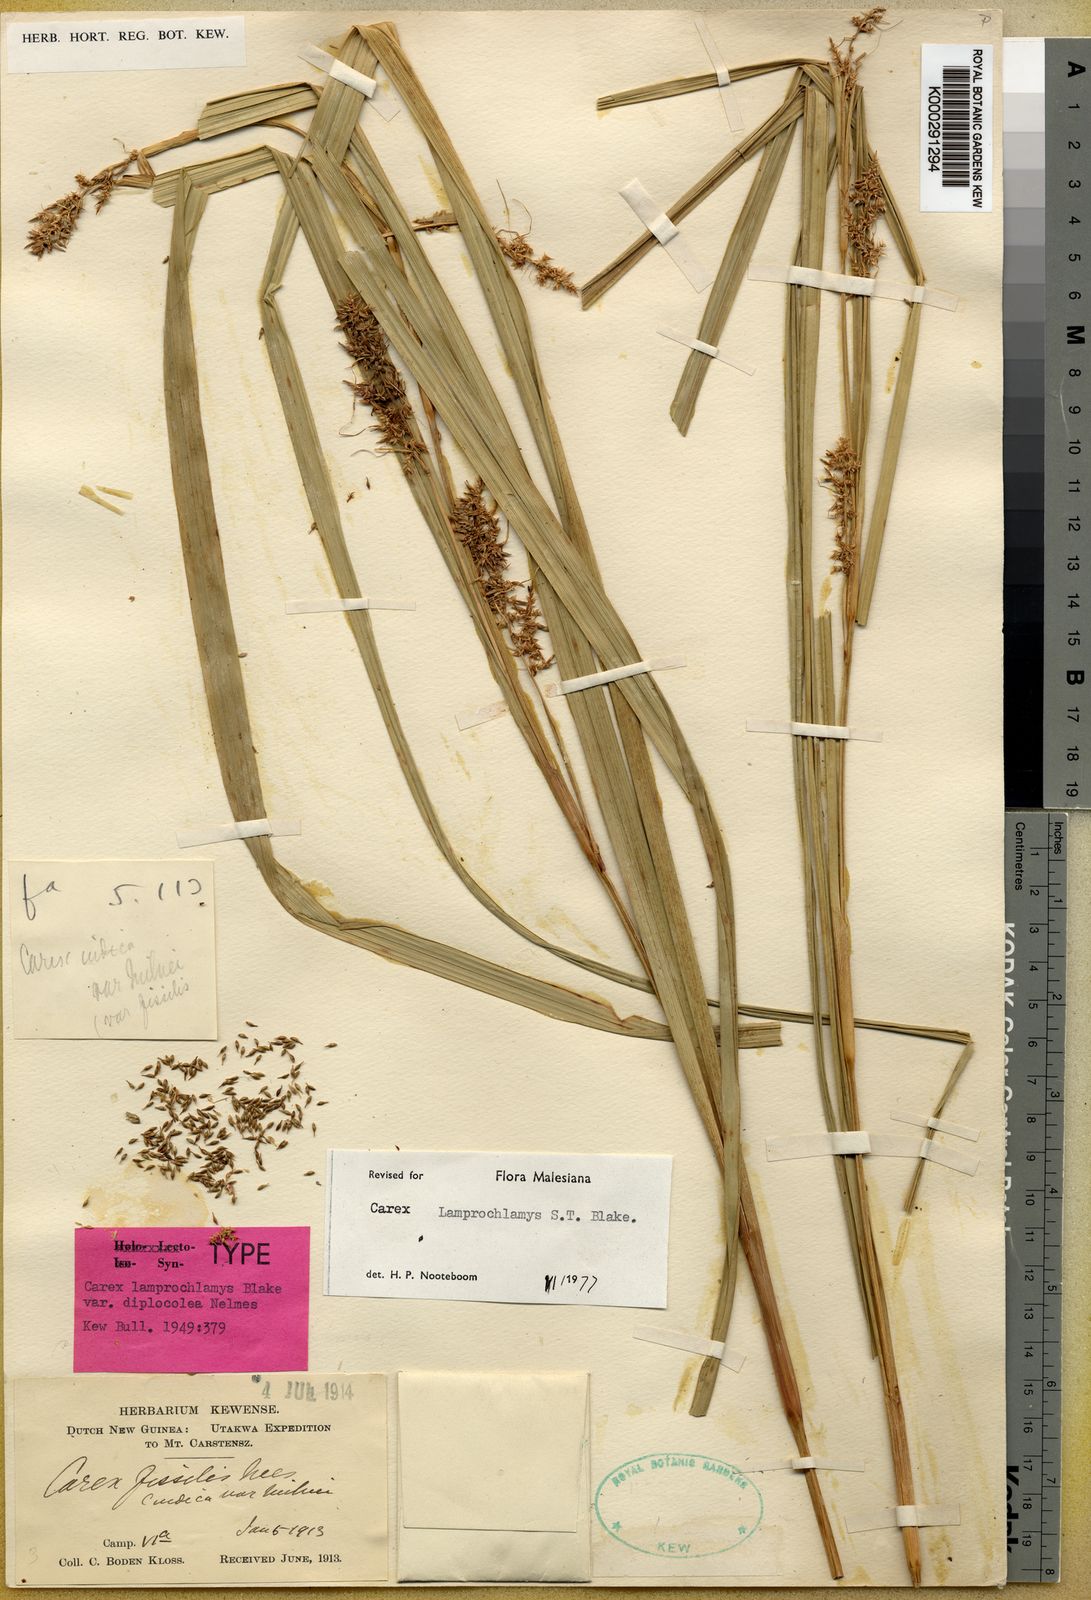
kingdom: Plantae
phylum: Tracheophyta
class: Liliopsida
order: Poales
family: Cyperaceae
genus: Carex
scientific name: Carex lamprochlamys
